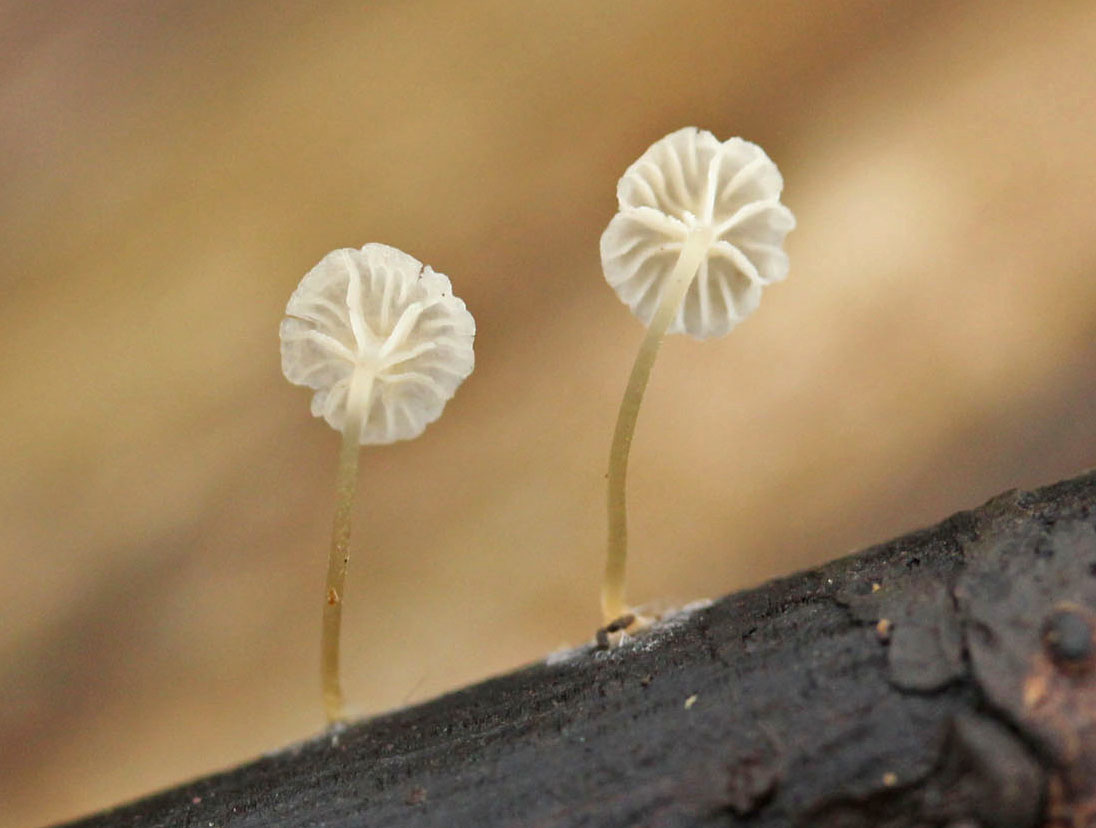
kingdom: Fungi
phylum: Basidiomycota
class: Agaricomycetes
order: Agaricales
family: Porotheleaceae
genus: Phloeomana
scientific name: Phloeomana speirea
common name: kvist-huesvamp
